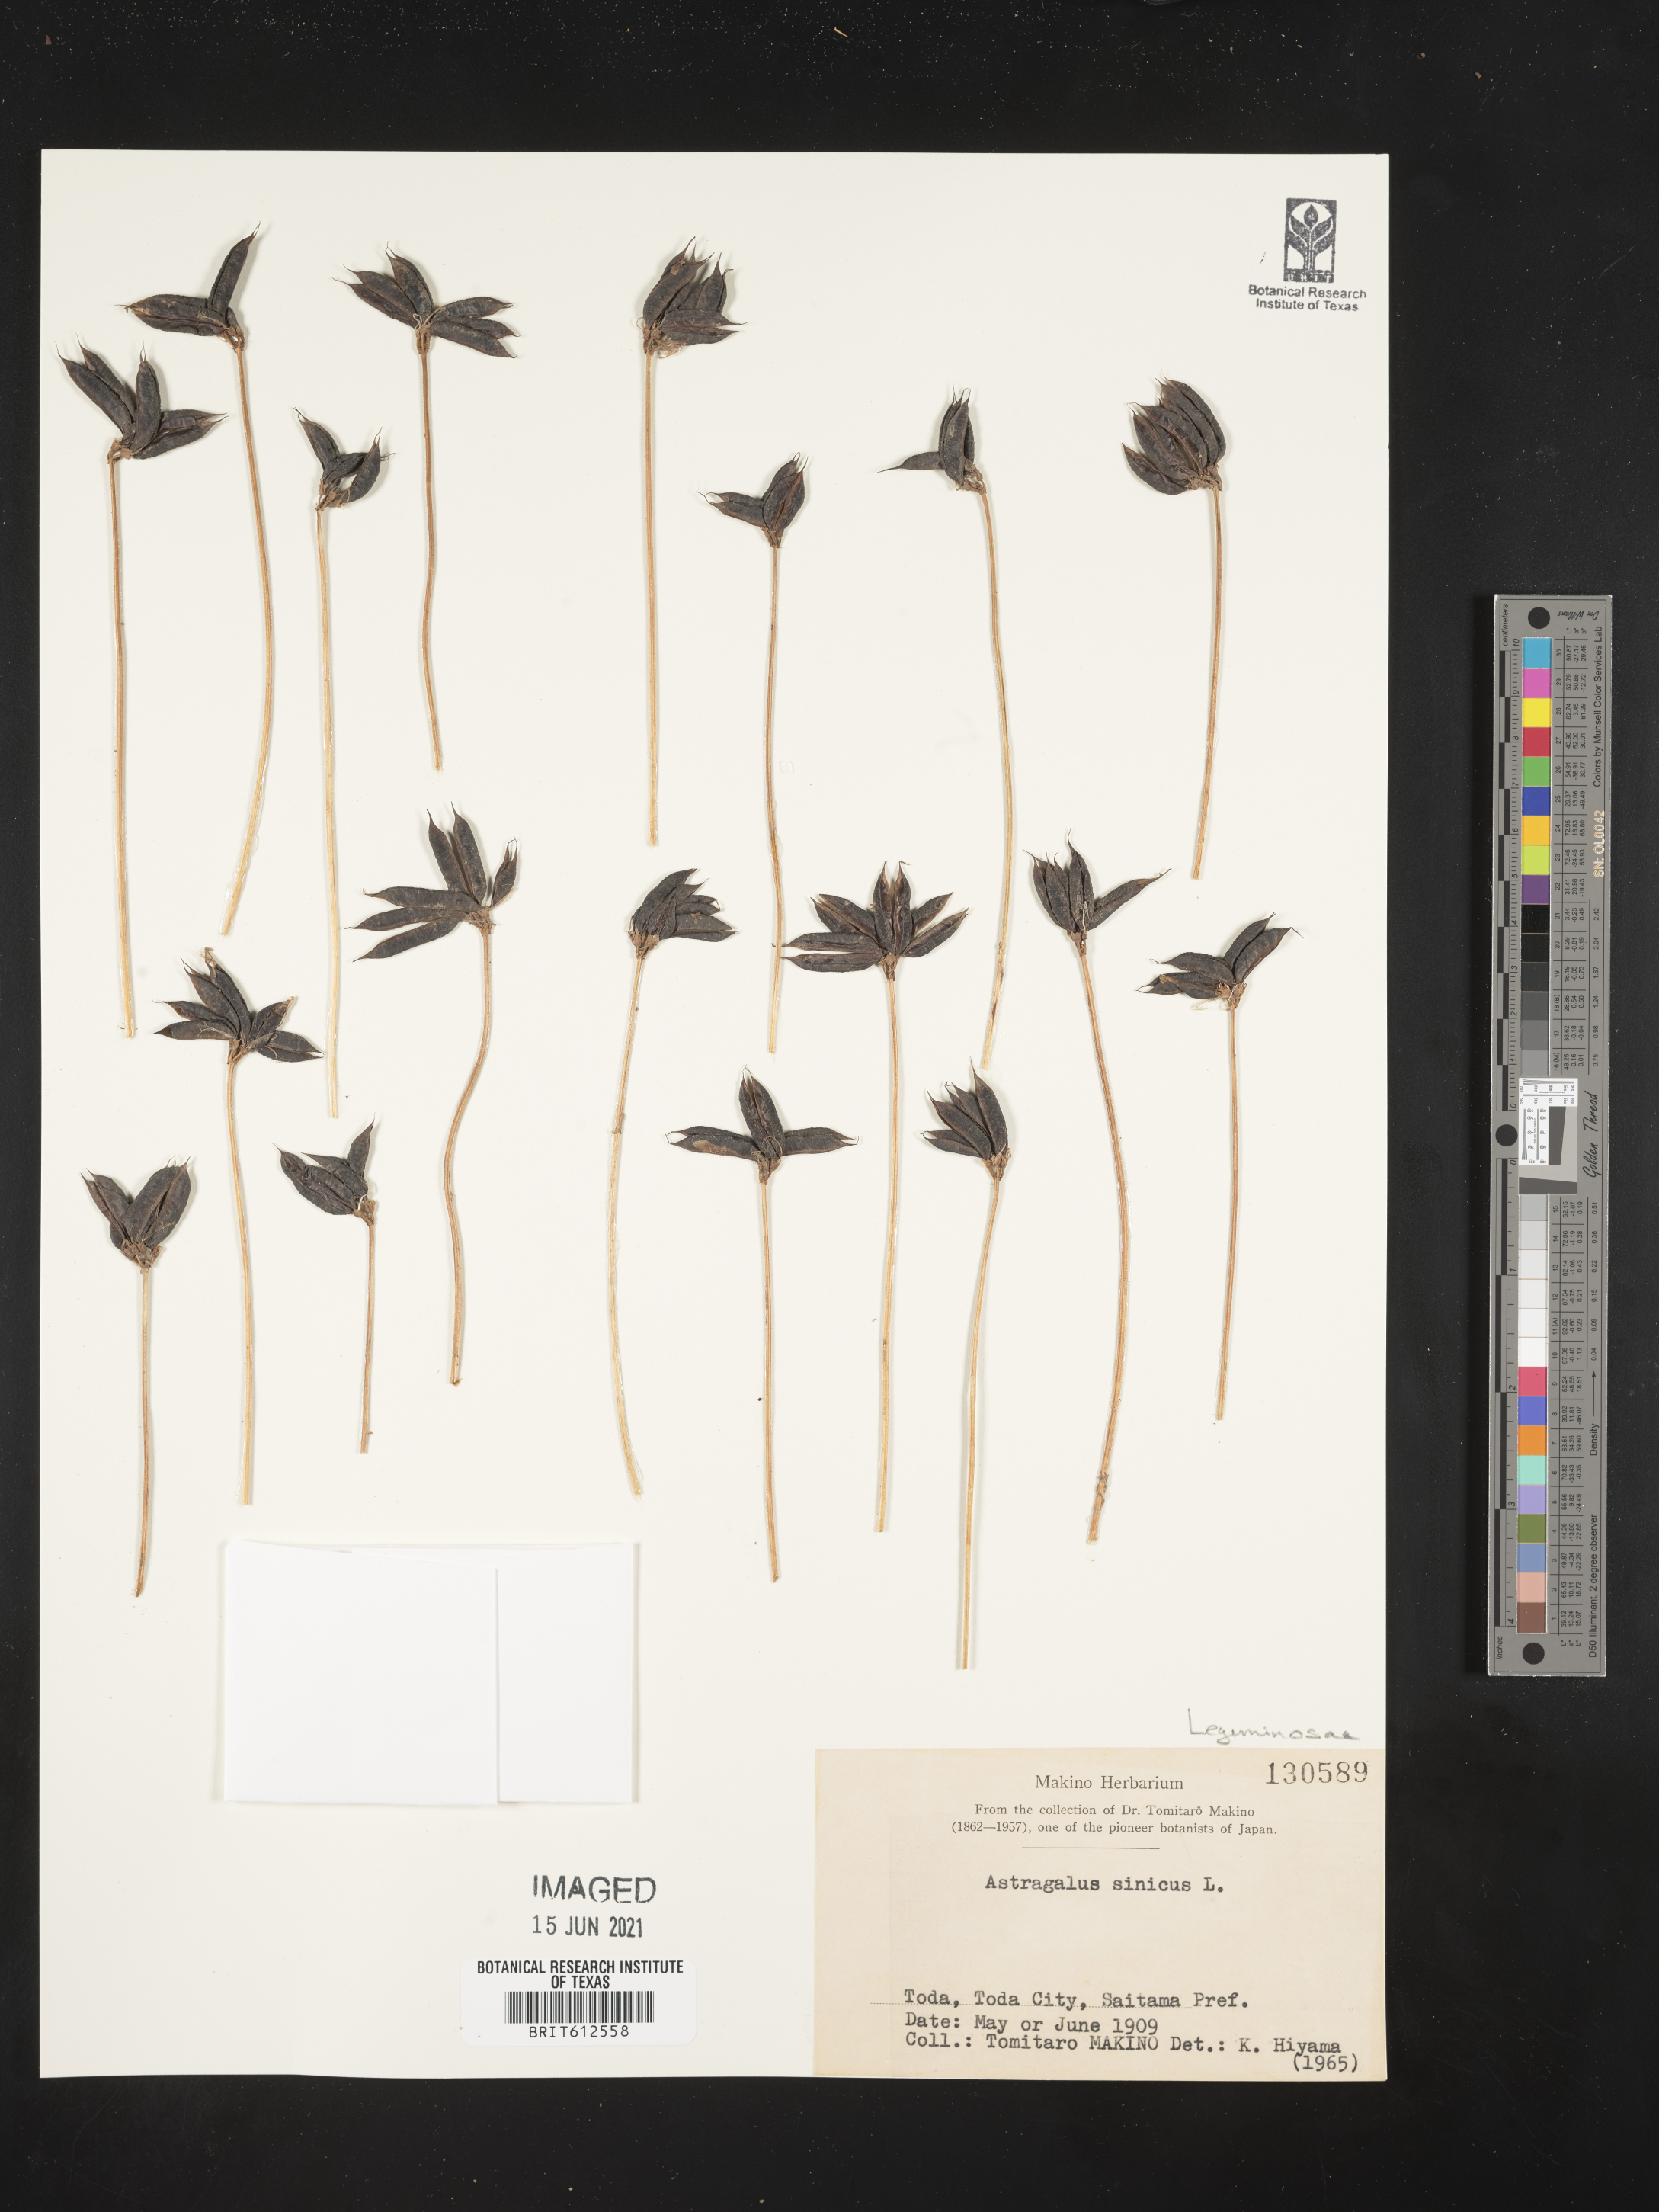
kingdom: Plantae
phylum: Tracheophyta
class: Magnoliopsida
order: Fabales
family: Fabaceae
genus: Astragalus
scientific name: Astragalus sinicus
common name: Chinese milk-vetch
